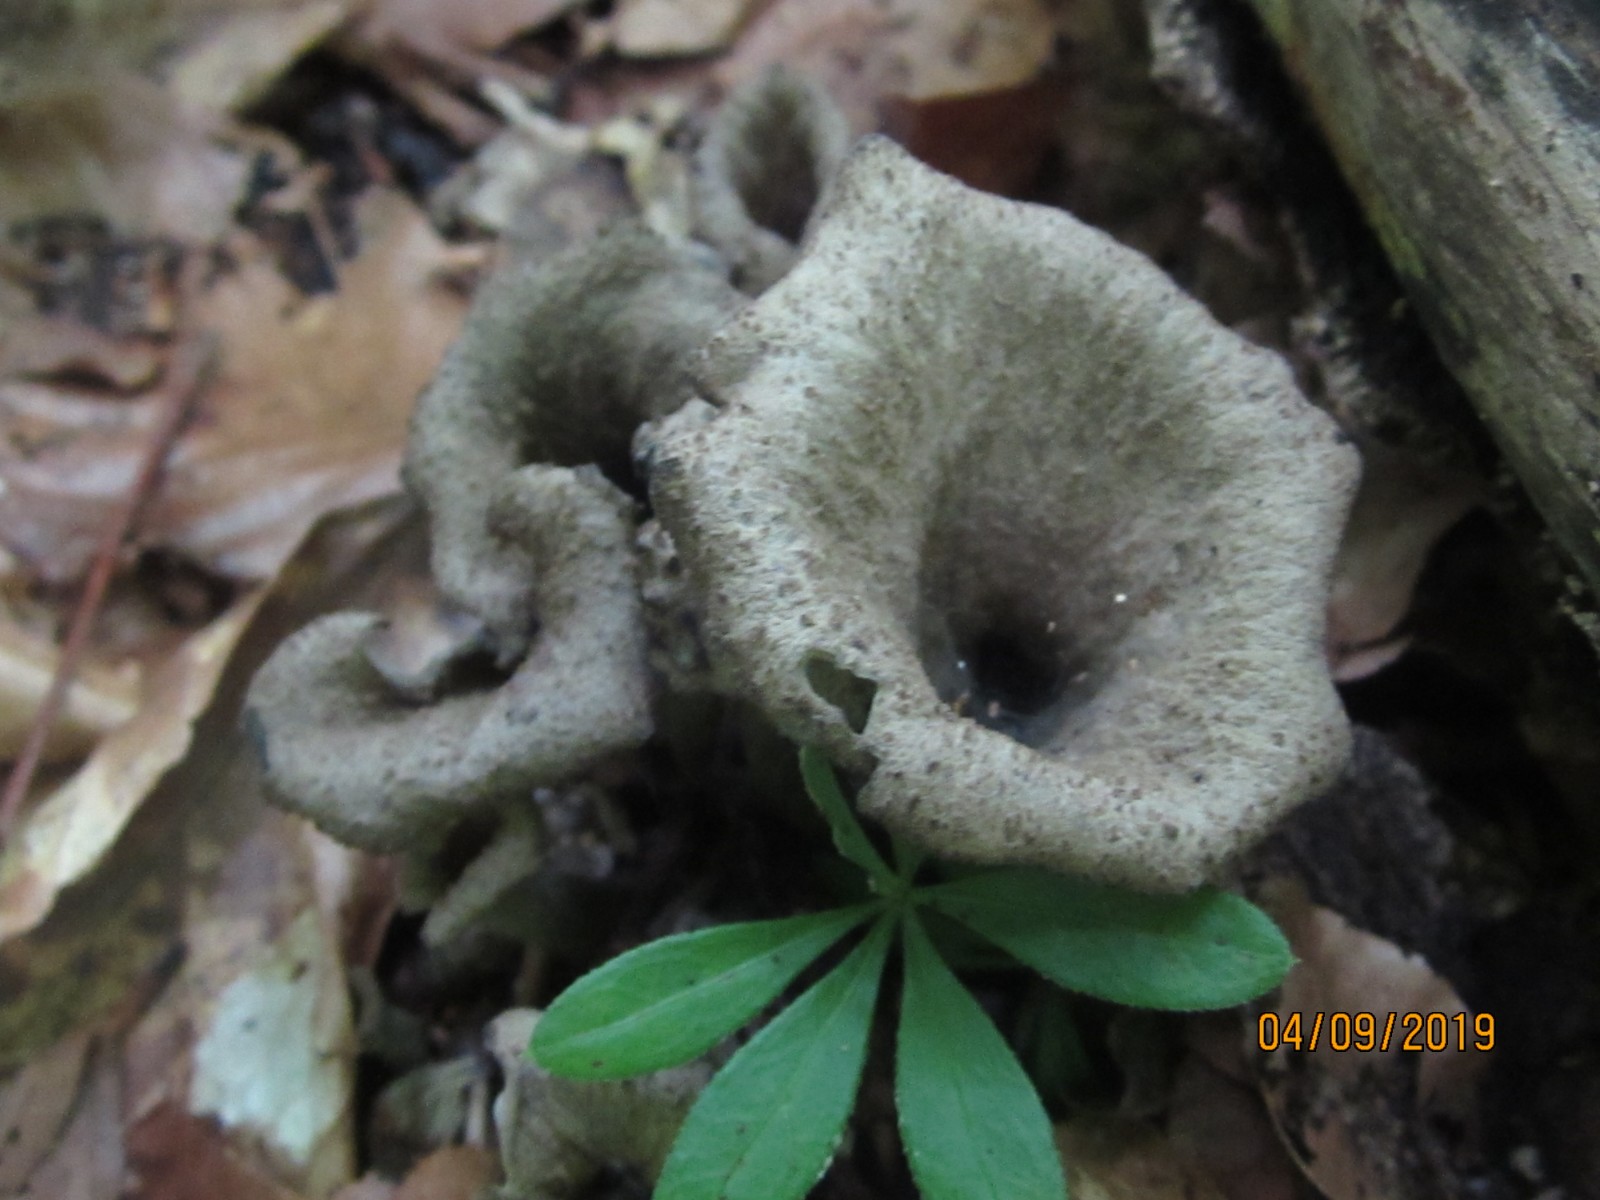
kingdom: Fungi
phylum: Basidiomycota
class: Agaricomycetes
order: Cantharellales
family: Hydnaceae
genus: Craterellus
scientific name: Craterellus cornucopioides
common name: trompetsvamp
